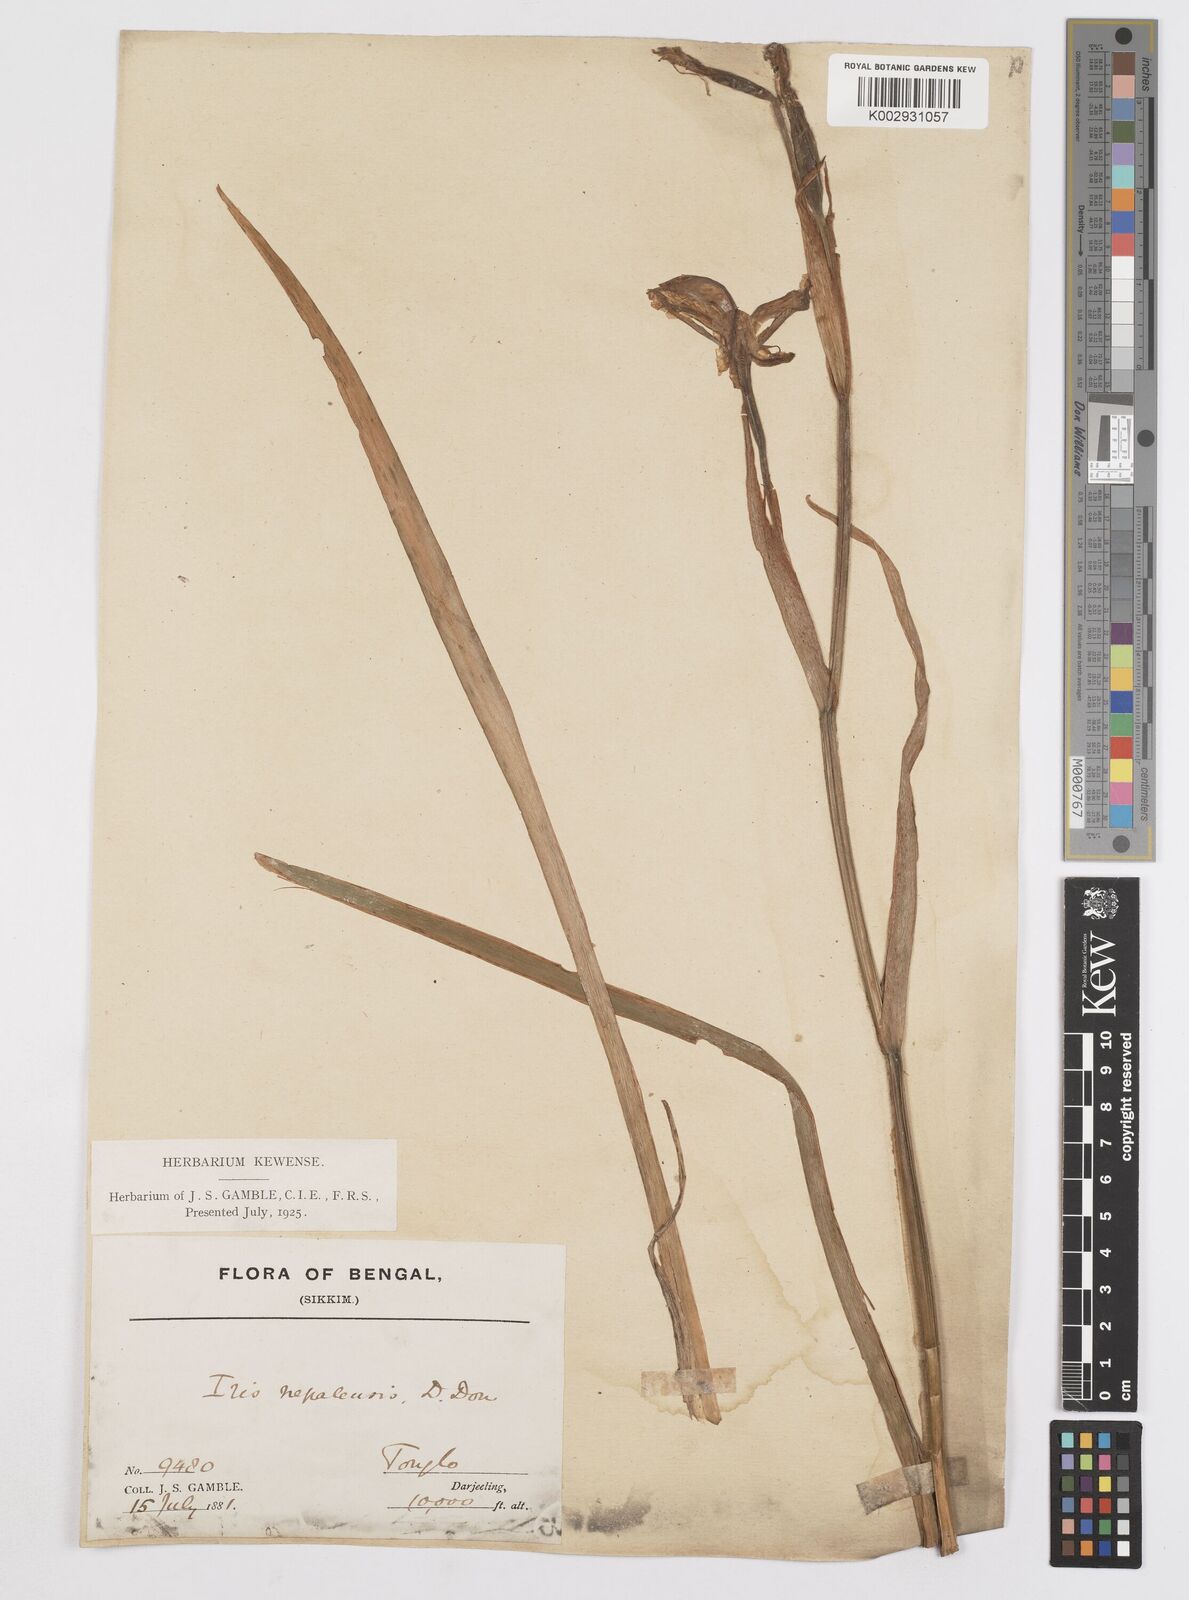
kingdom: Plantae
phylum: Tracheophyta
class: Liliopsida
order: Asparagales
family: Iridaceae
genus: Iris
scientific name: Iris clarkei
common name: Tibet iris
